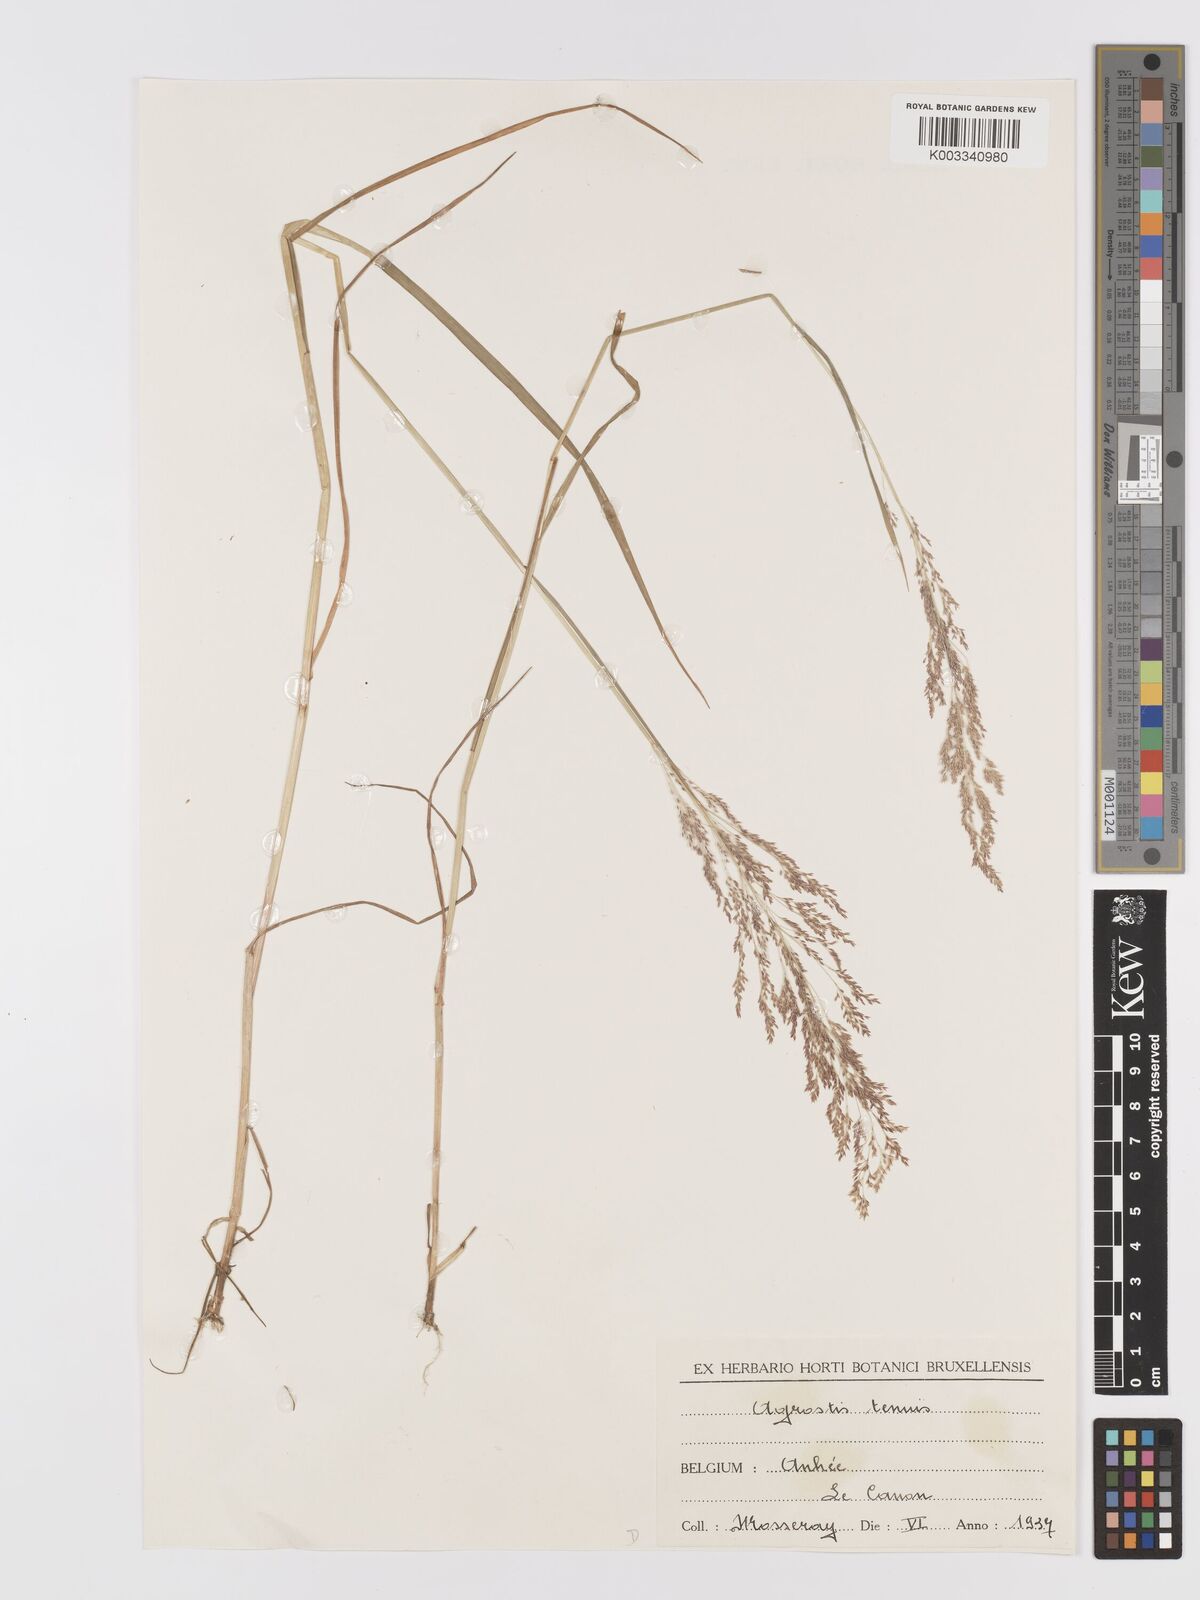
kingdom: Plantae
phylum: Tracheophyta
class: Liliopsida
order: Poales
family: Poaceae
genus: Agrostis
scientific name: Agrostis capillaris
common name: Colonial bentgrass
